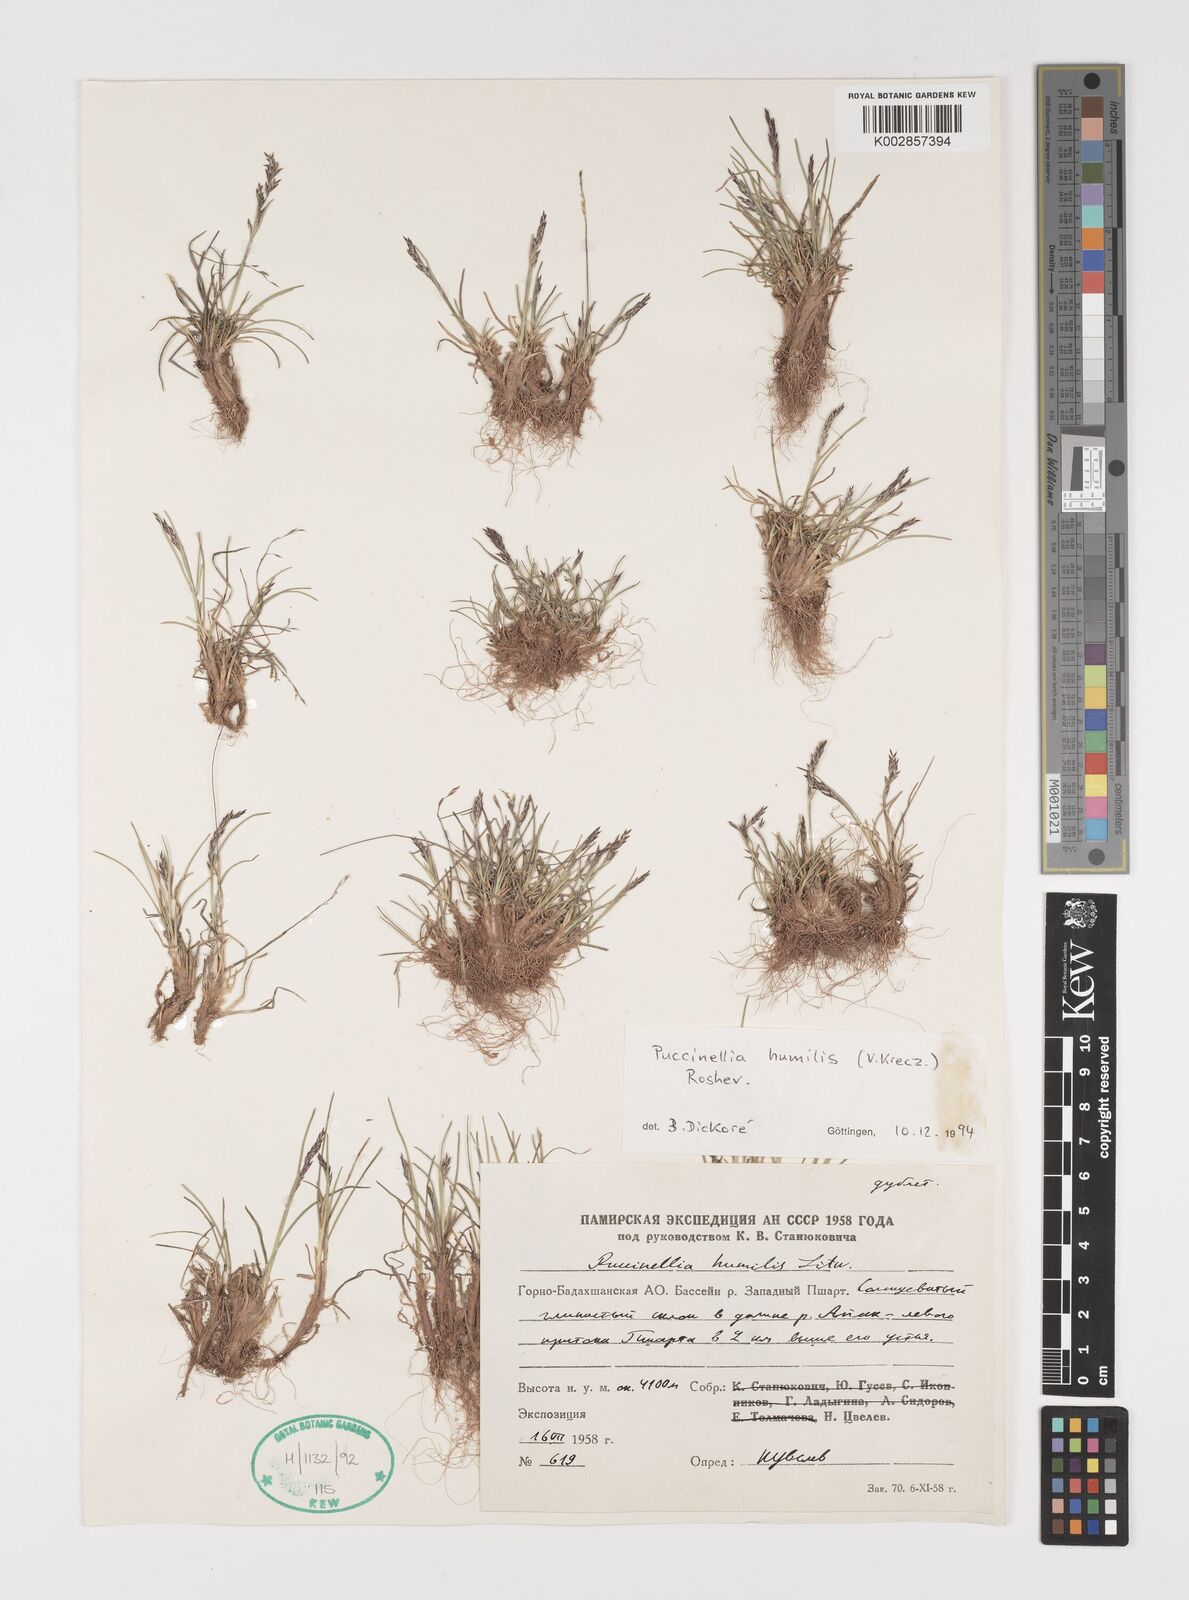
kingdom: Plantae
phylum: Tracheophyta
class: Liliopsida
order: Poales
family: Poaceae
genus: Puccinellia
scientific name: Puccinellia hackeliana
